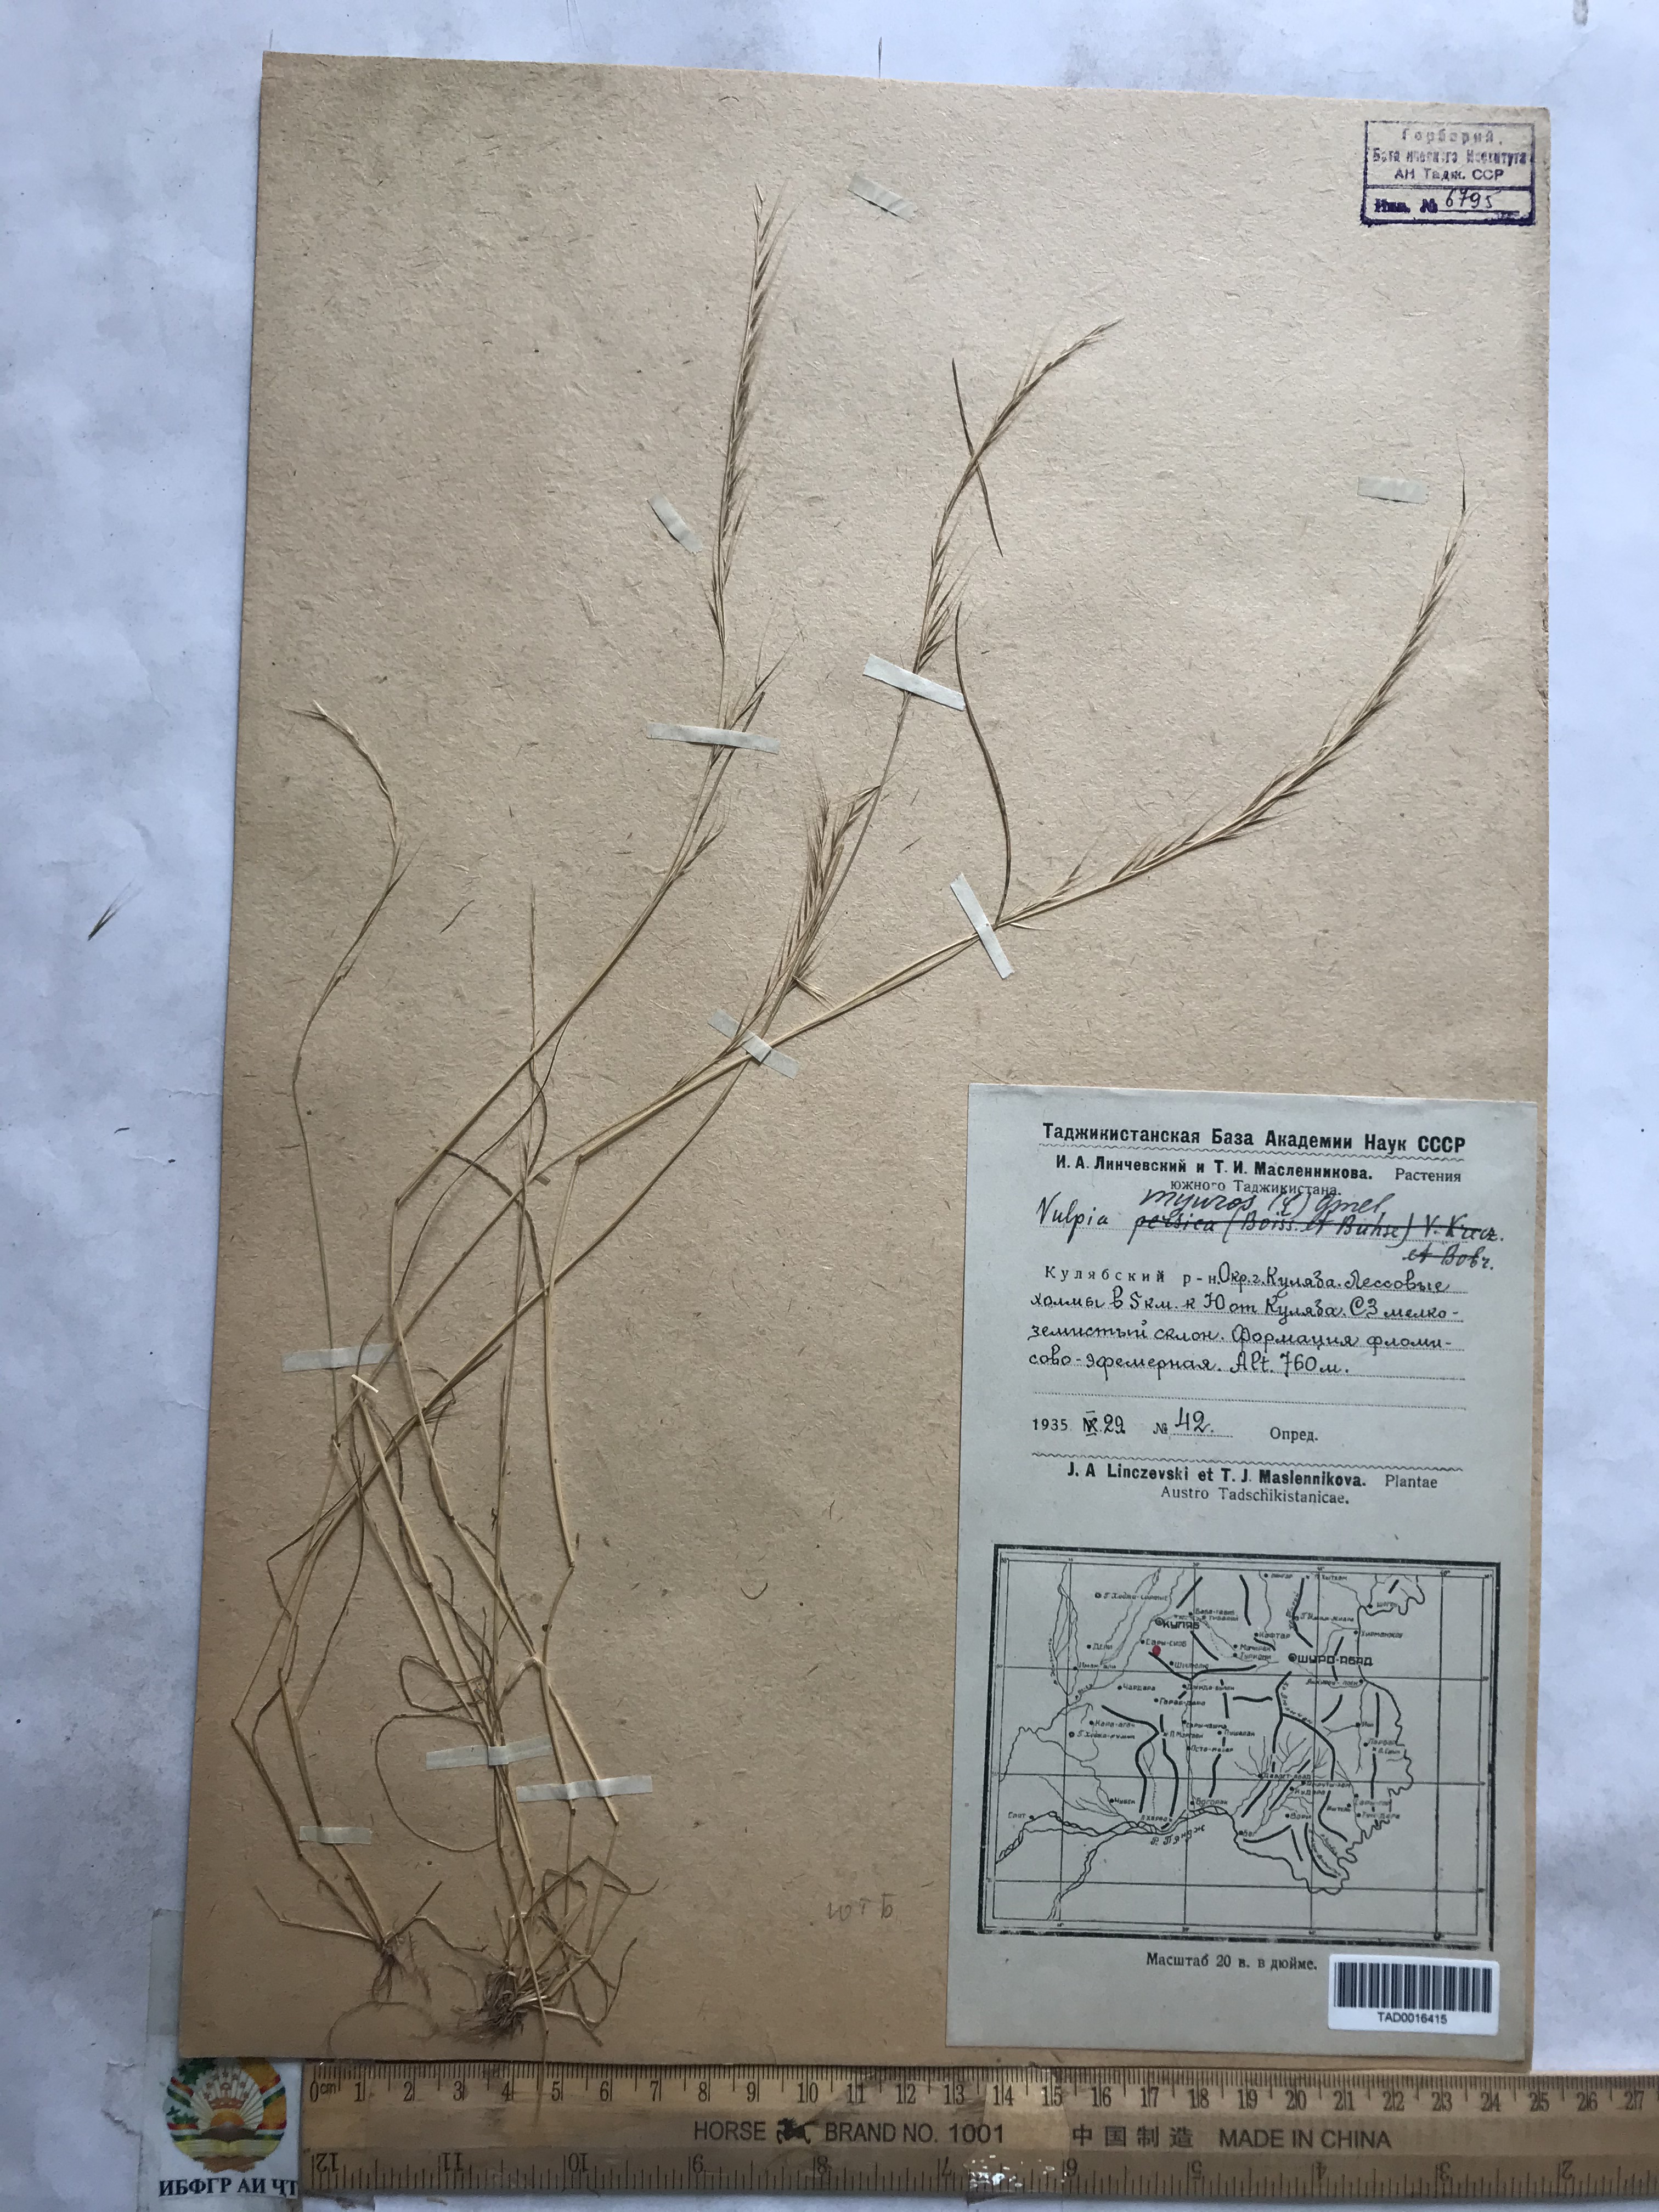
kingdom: Plantae
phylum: Tracheophyta
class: Liliopsida
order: Poales
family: Poaceae
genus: Festuca
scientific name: Festuca myuros
